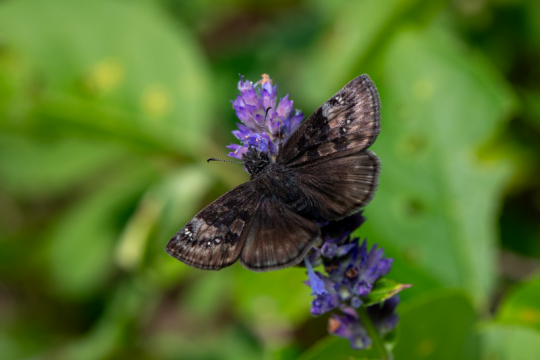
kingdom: Animalia
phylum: Arthropoda
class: Insecta
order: Lepidoptera
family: Hesperiidae
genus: Gesta
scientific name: Gesta
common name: Columbine Duskywing
